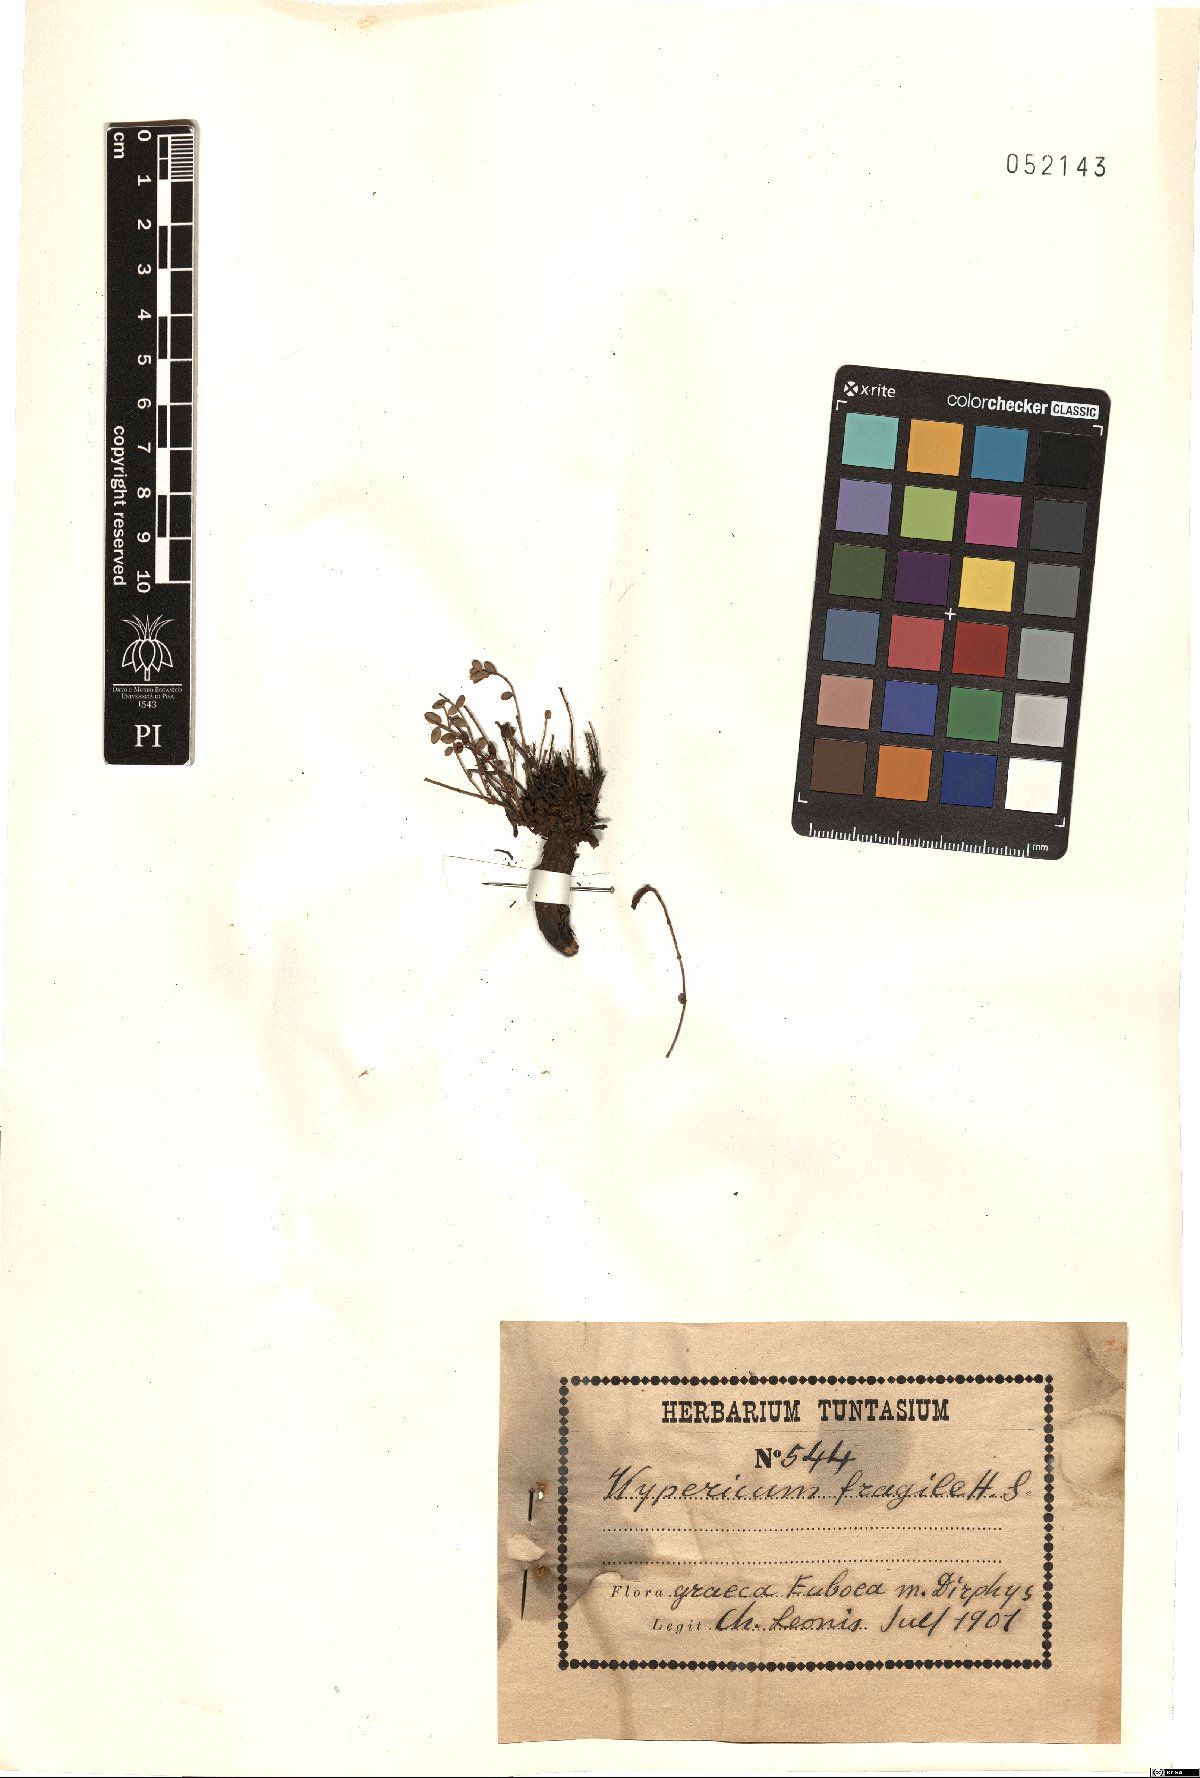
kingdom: Plantae
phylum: Tracheophyta
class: Magnoliopsida
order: Malpighiales
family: Hypericaceae
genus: Hypericum
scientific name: Hypericum fragile
